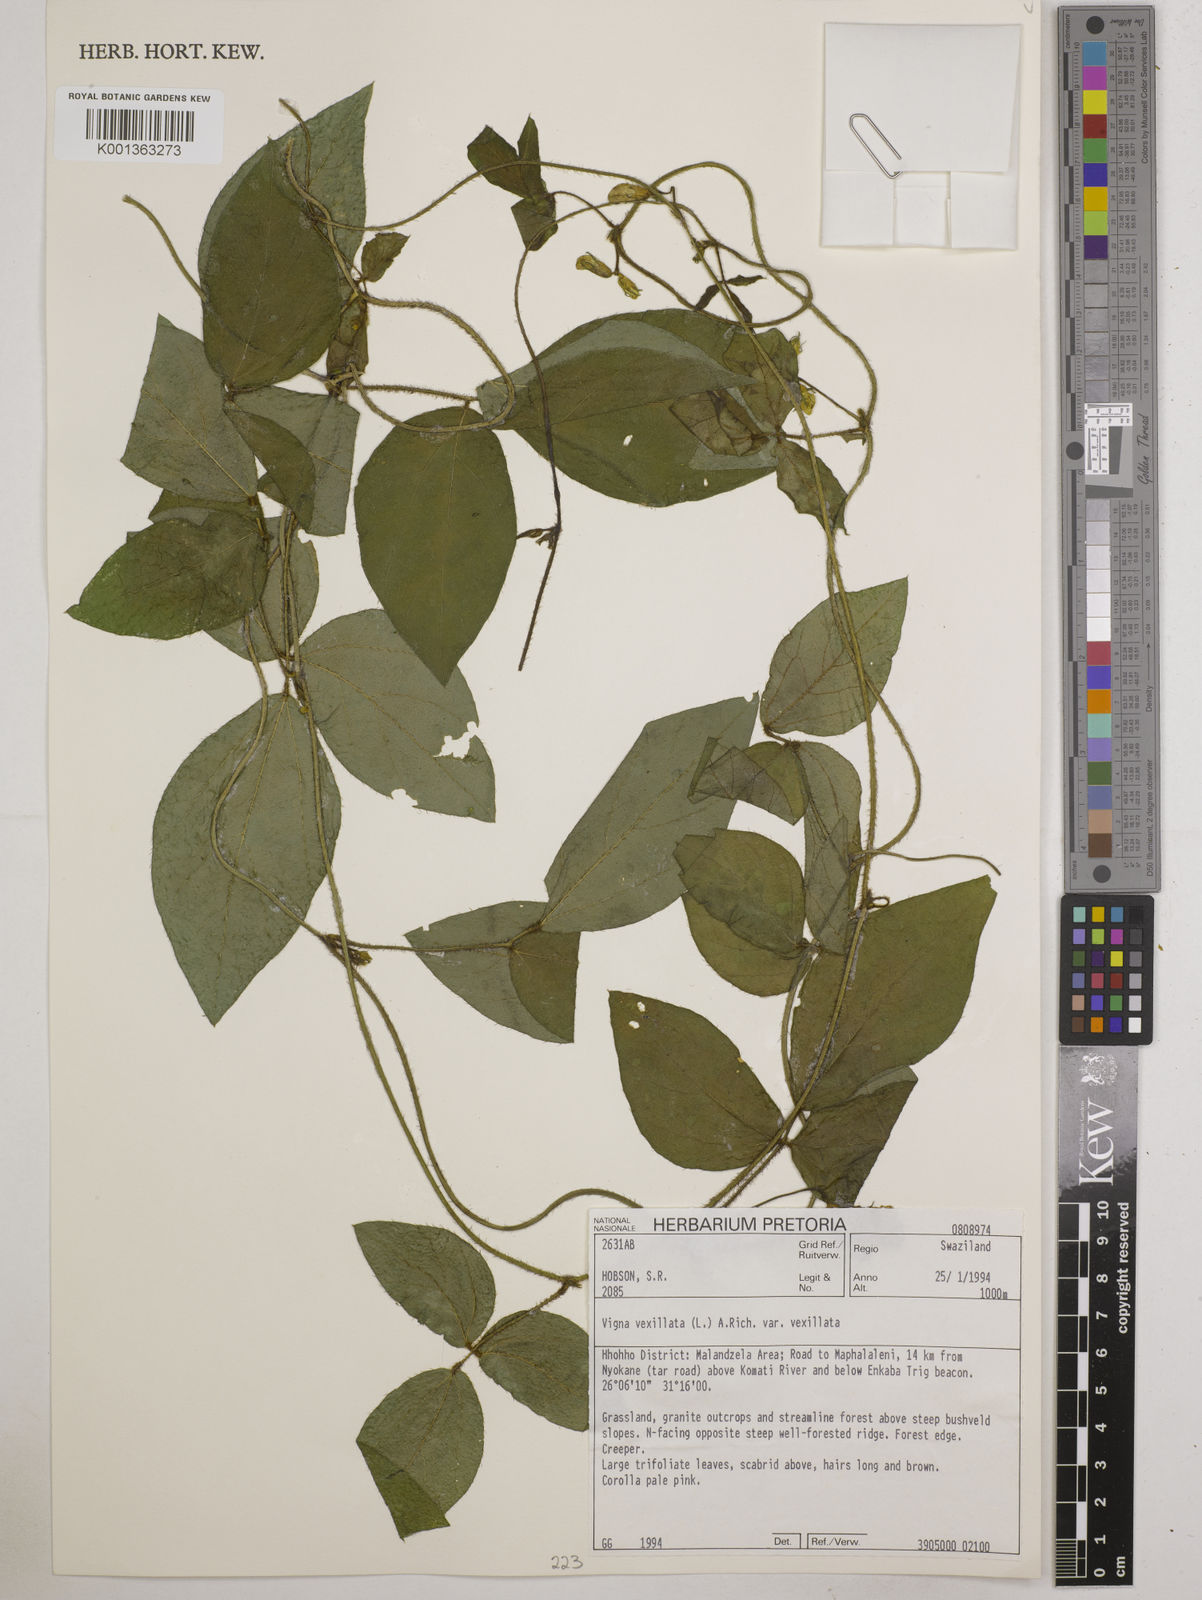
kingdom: Plantae
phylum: Tracheophyta
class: Magnoliopsida
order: Fabales
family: Fabaceae
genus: Vigna
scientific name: Vigna
